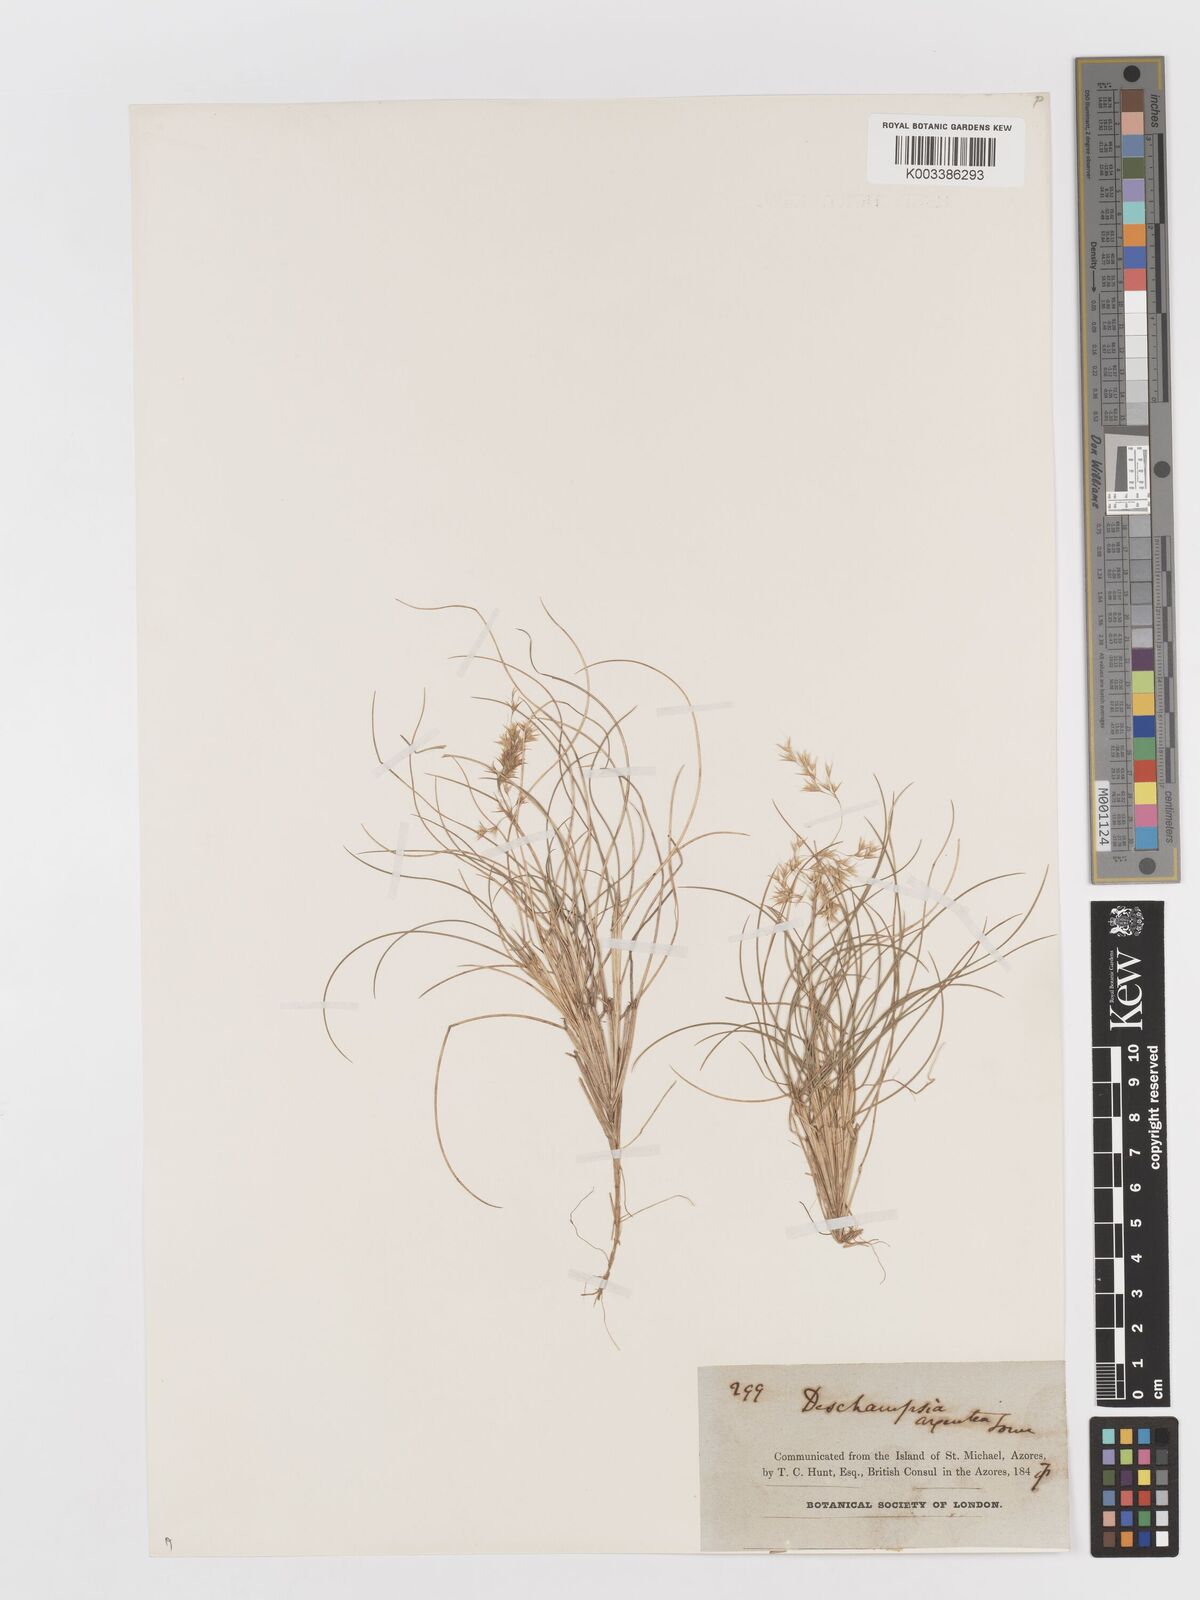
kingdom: Plantae
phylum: Tracheophyta
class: Liliopsida
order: Poales
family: Poaceae
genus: Avenella
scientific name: Avenella foliosa
